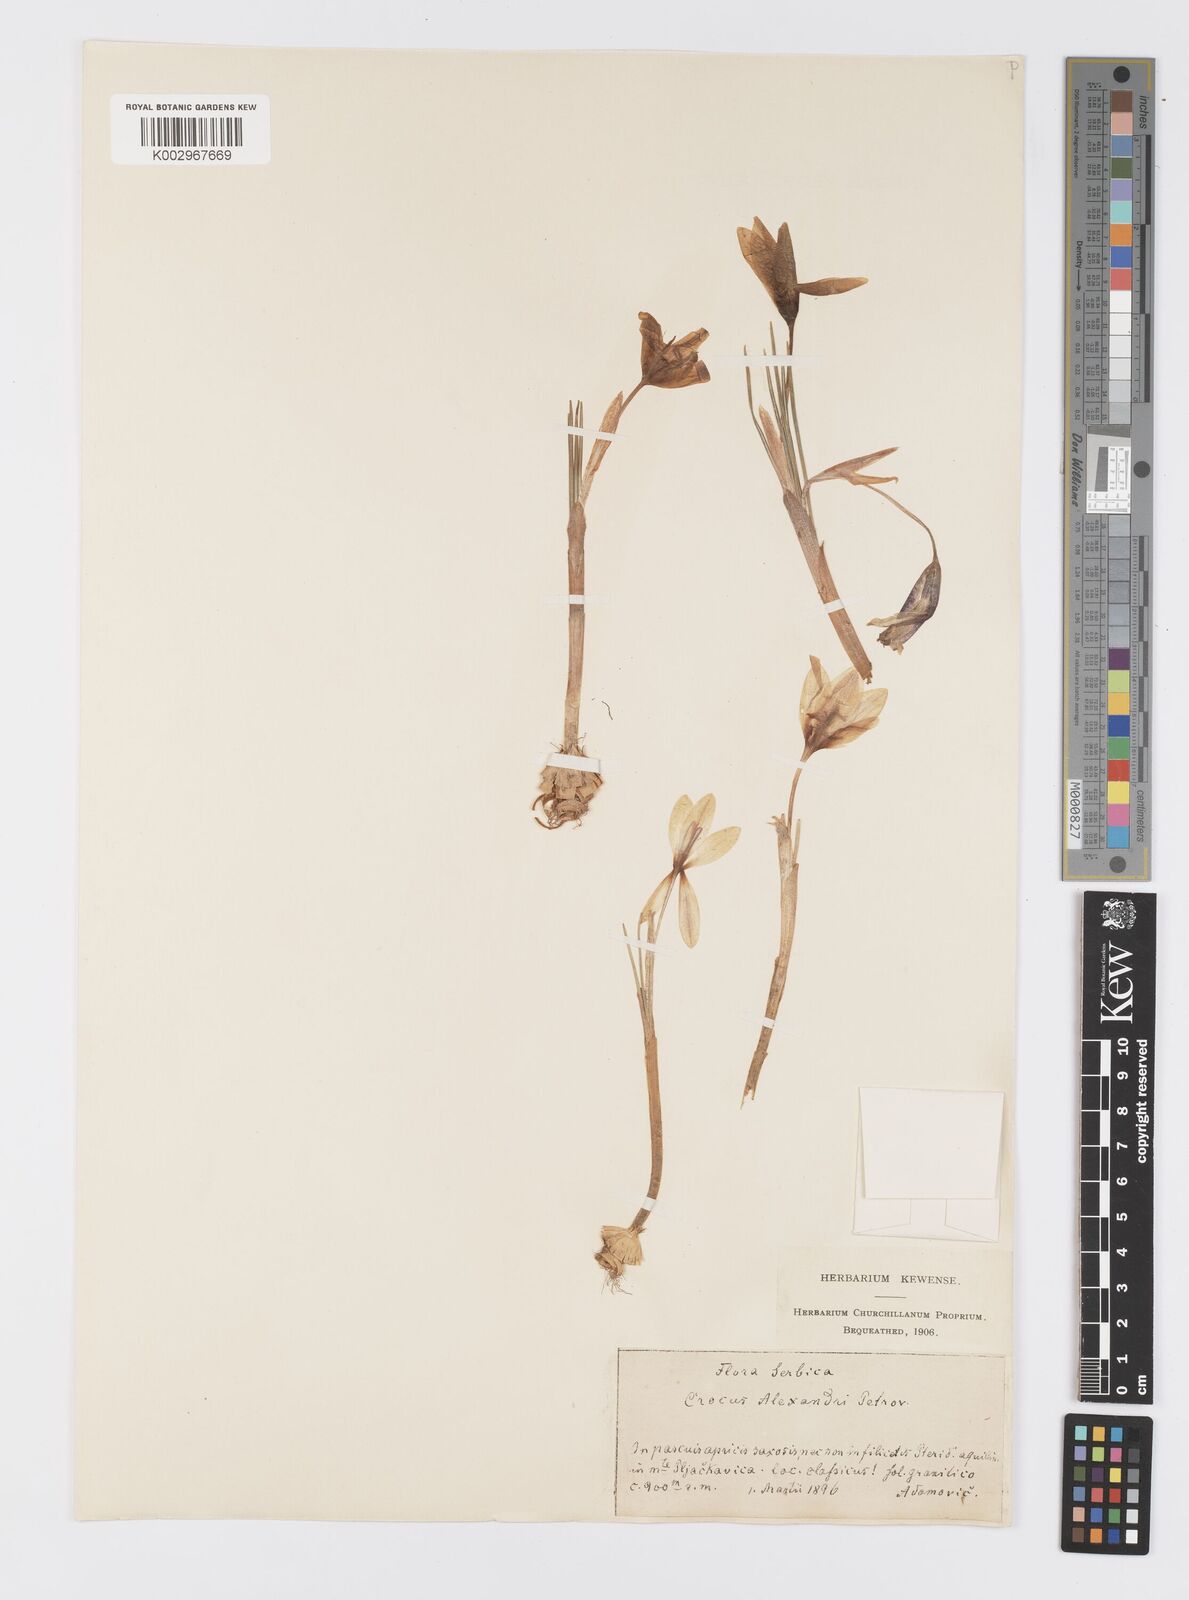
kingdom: Plantae
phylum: Tracheophyta
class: Liliopsida
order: Asparagales
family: Iridaceae
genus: Crocus
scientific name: Crocus alexandri
